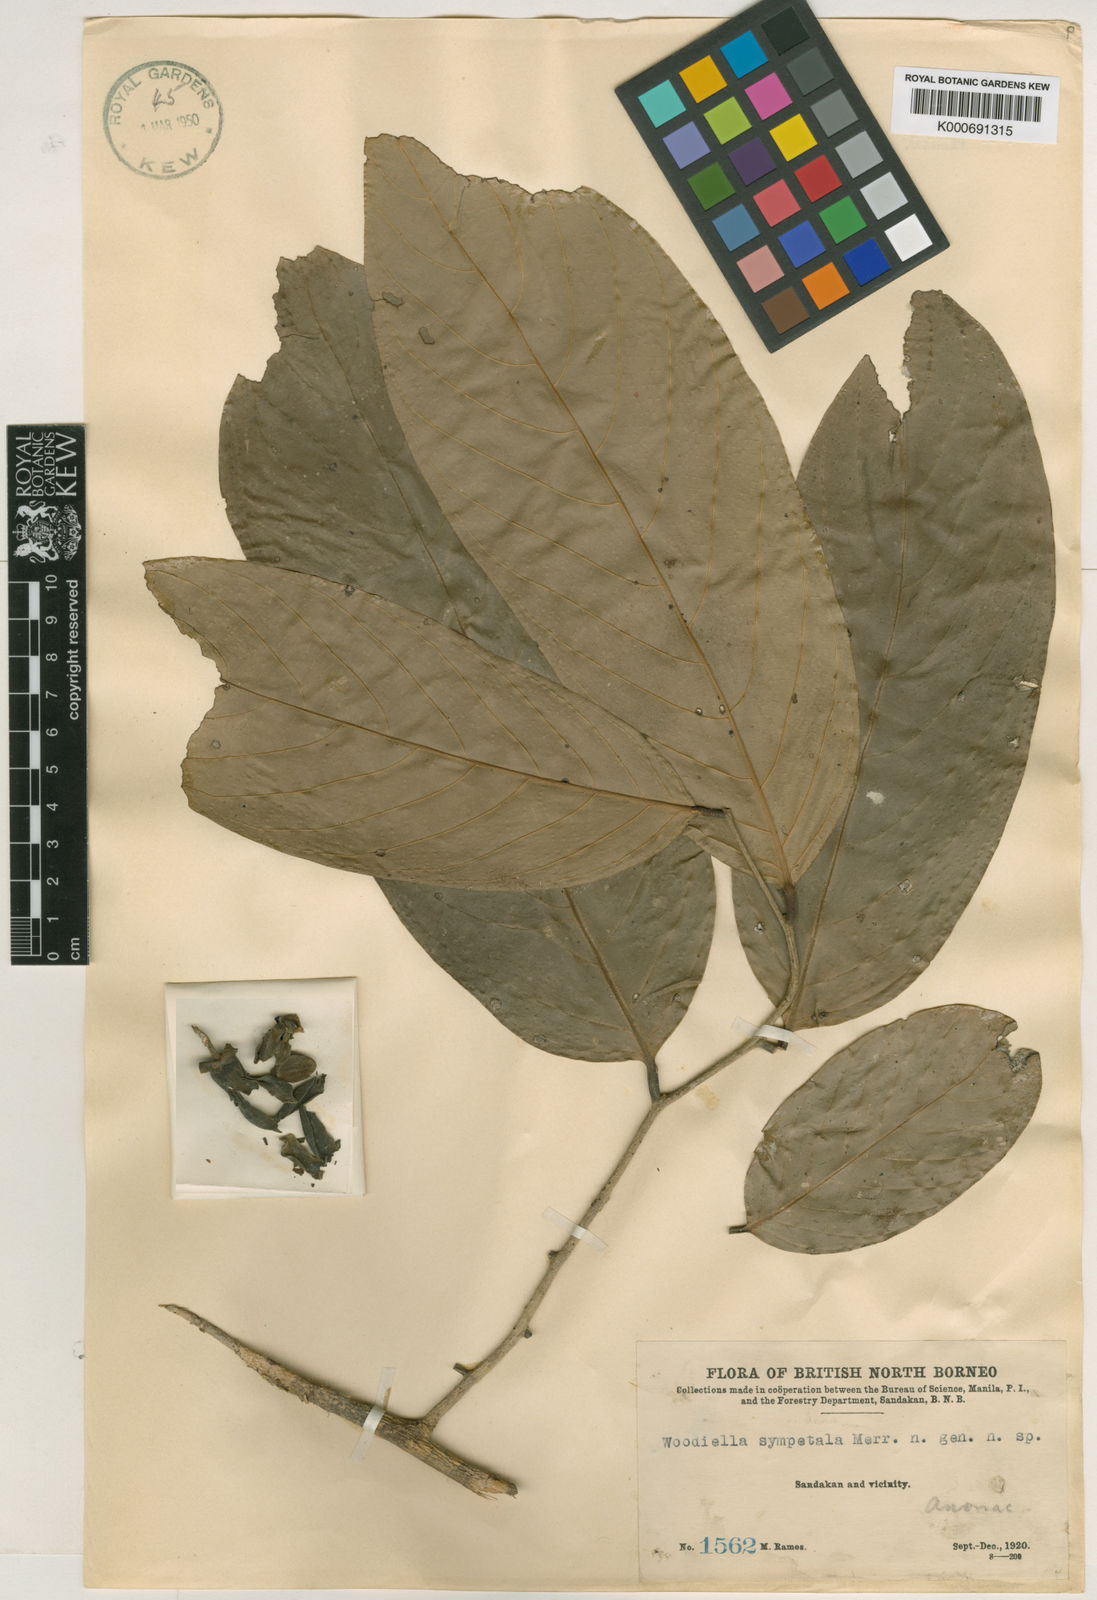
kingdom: Plantae
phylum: Tracheophyta
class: Magnoliopsida
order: Magnoliales
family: Annonaceae
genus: Woodiellantha
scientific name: Woodiellantha sympetala
